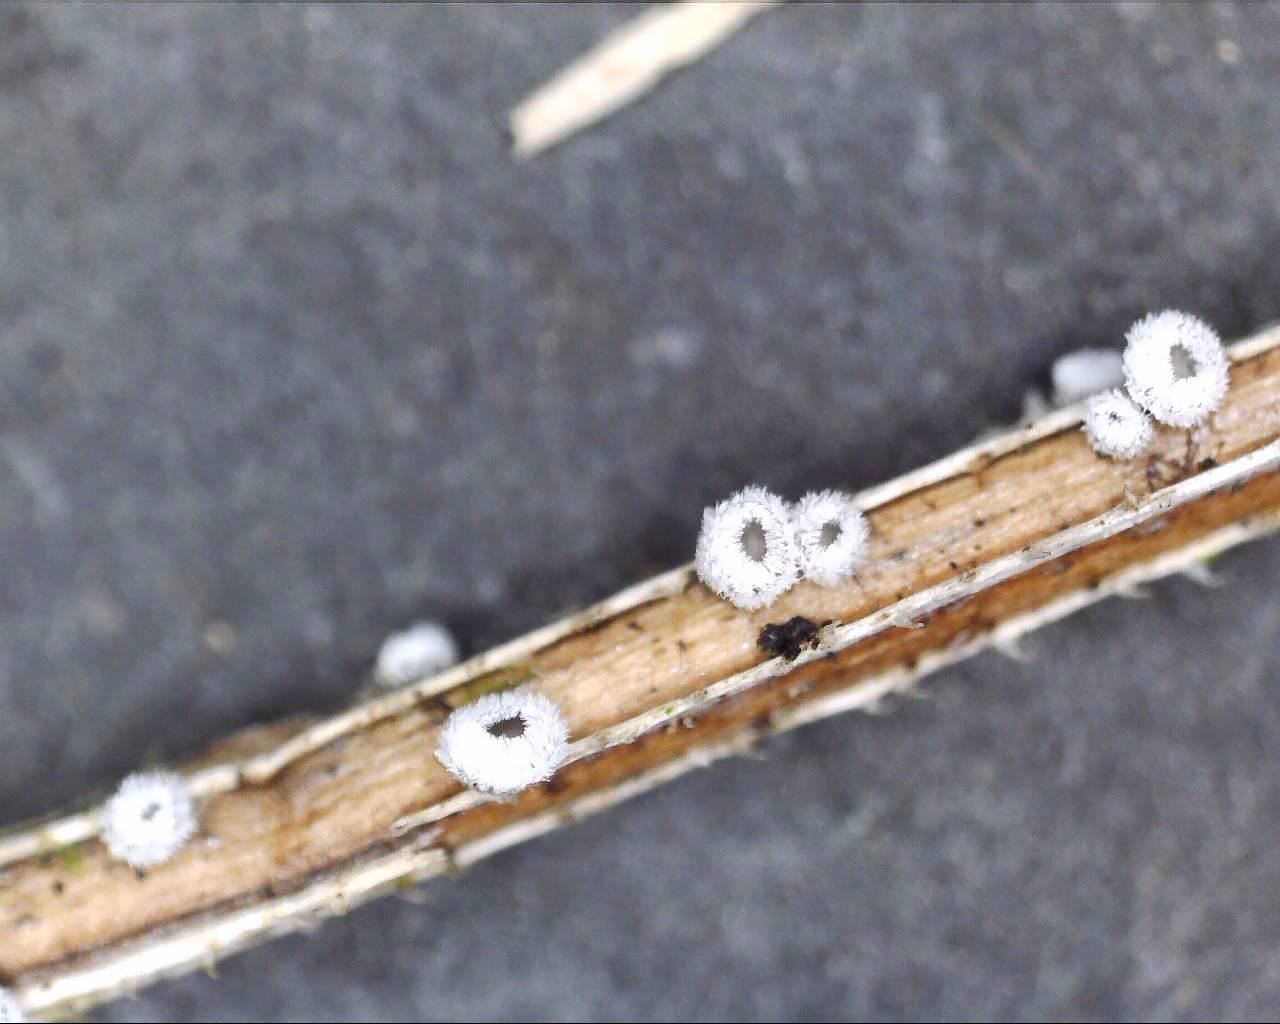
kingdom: Fungi
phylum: Basidiomycota
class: Agaricomycetes
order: Agaricales
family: Niaceae
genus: Lachnella
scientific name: Lachnella alboviolascens
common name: grå frynserede
